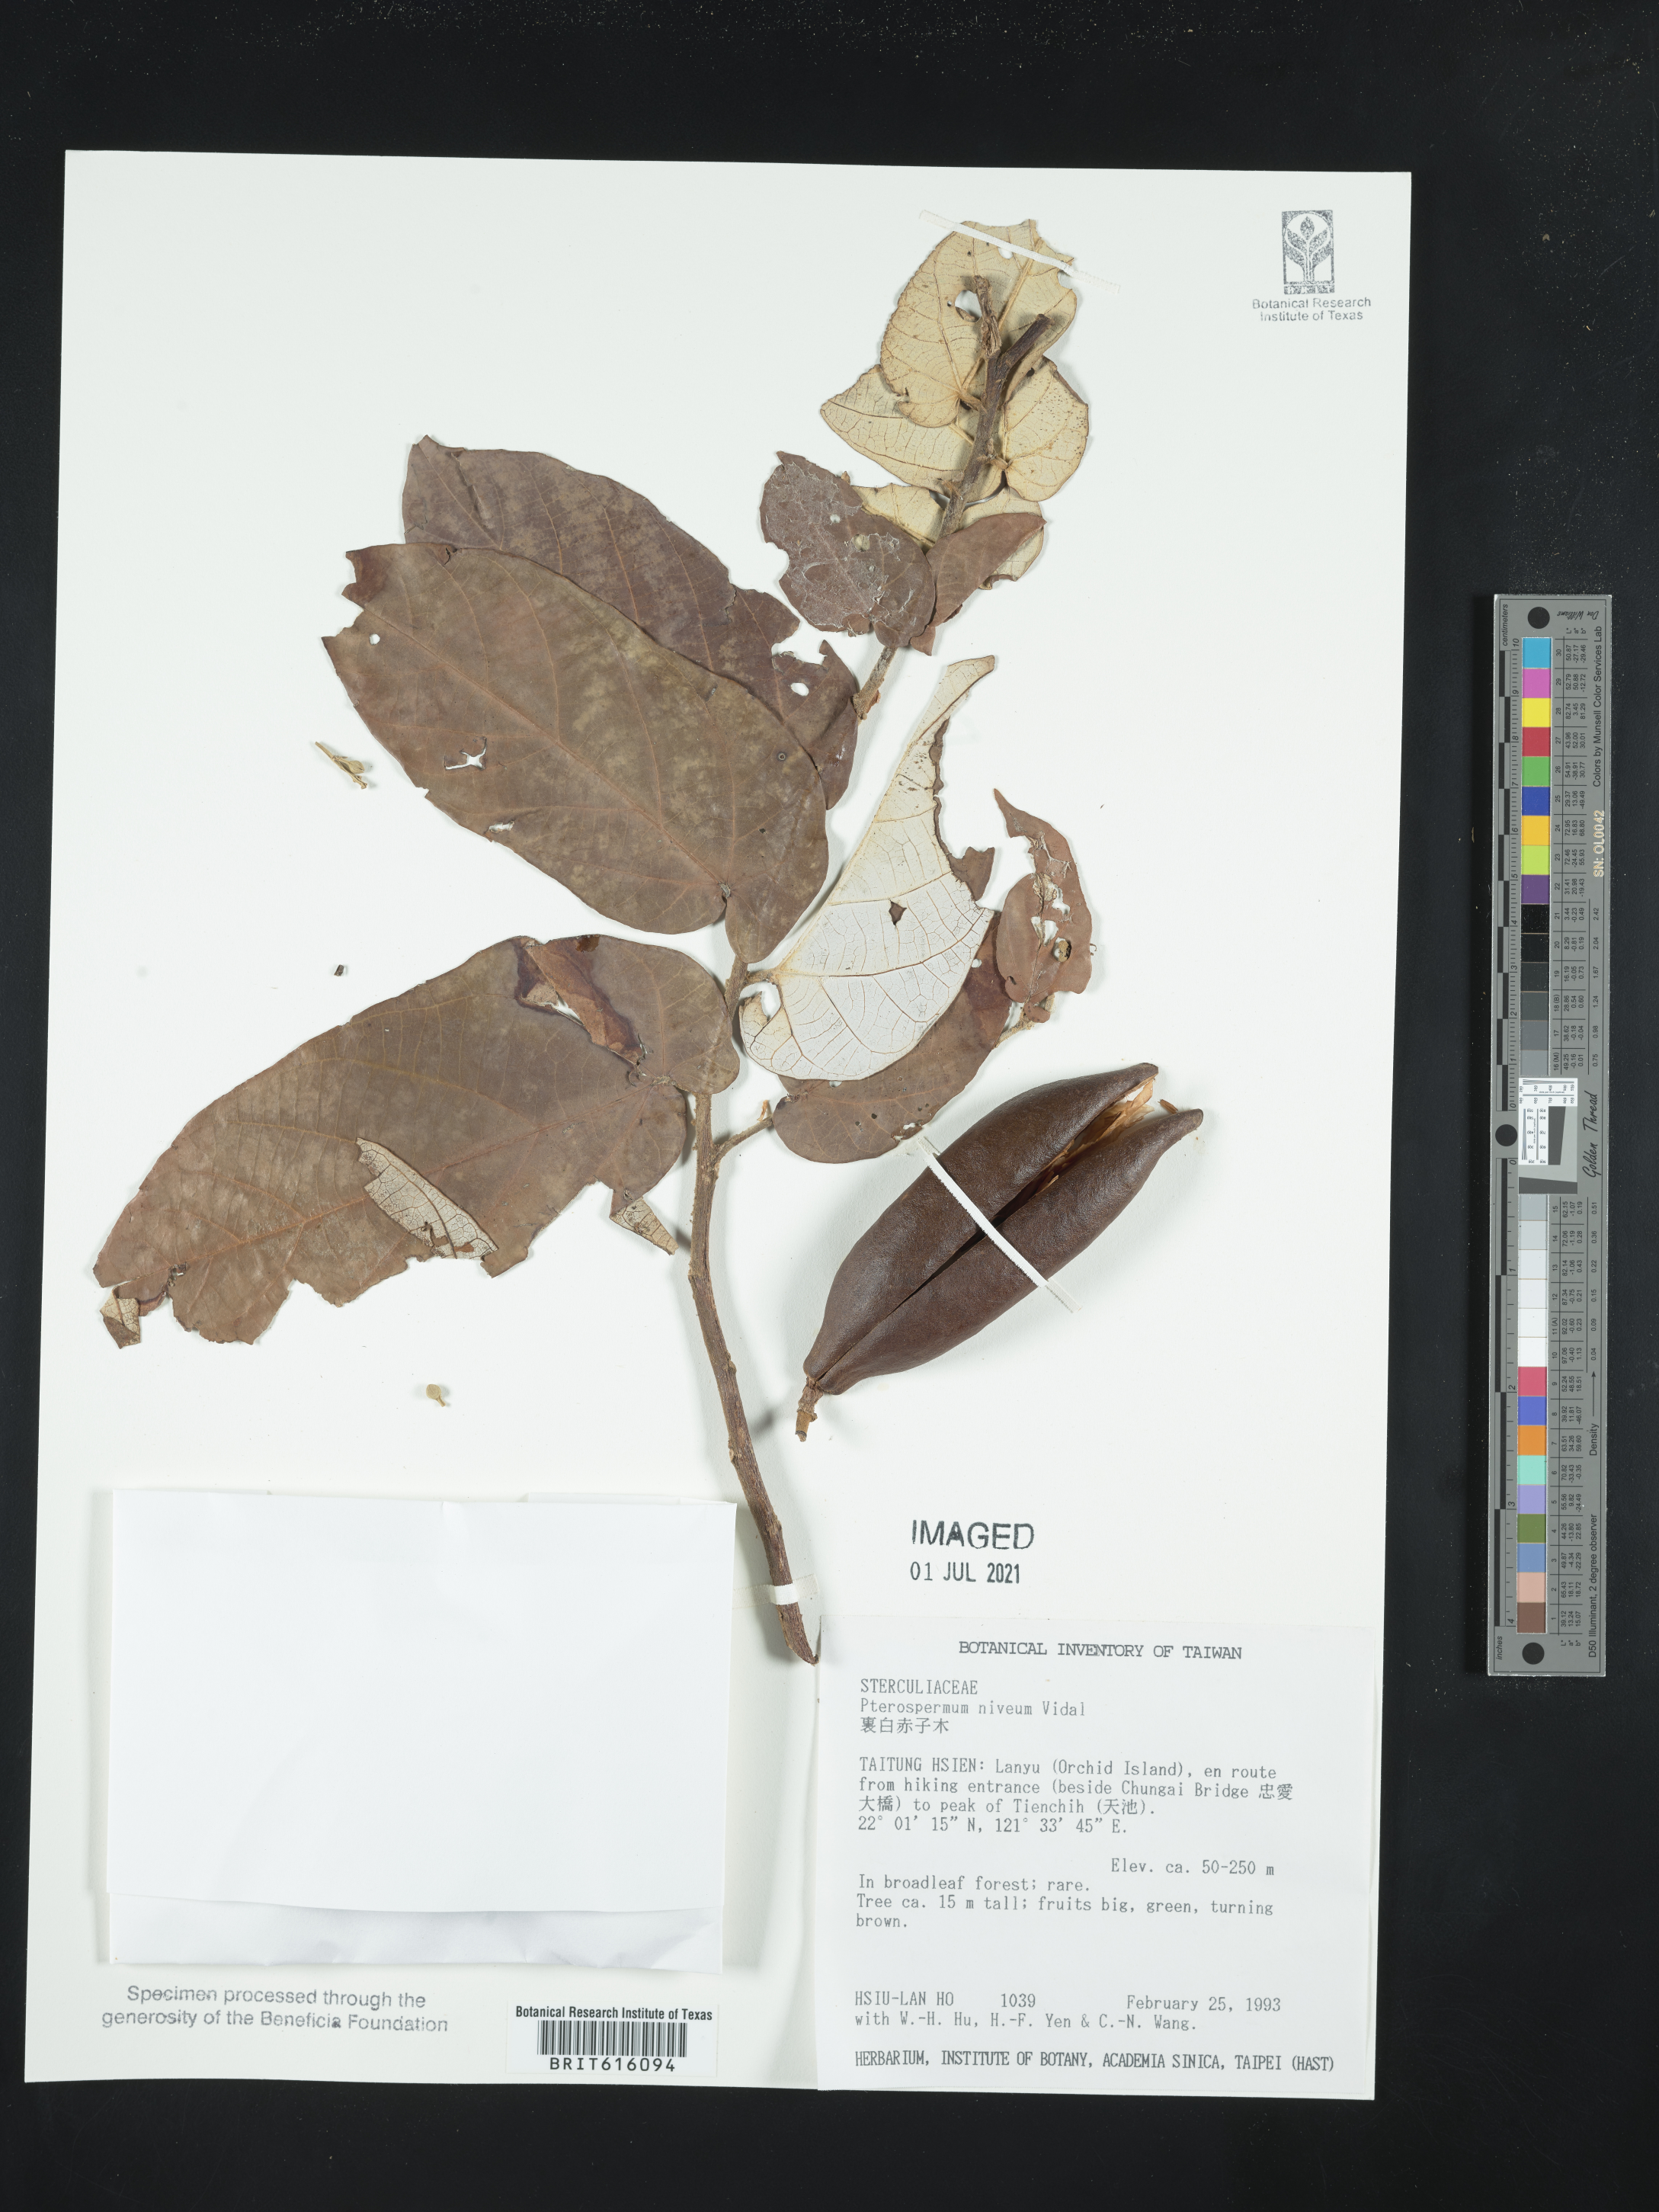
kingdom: Plantae
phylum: Tracheophyta
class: Magnoliopsida
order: Malvales
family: Malvaceae
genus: Pterospermum
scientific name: Pterospermum niveum
